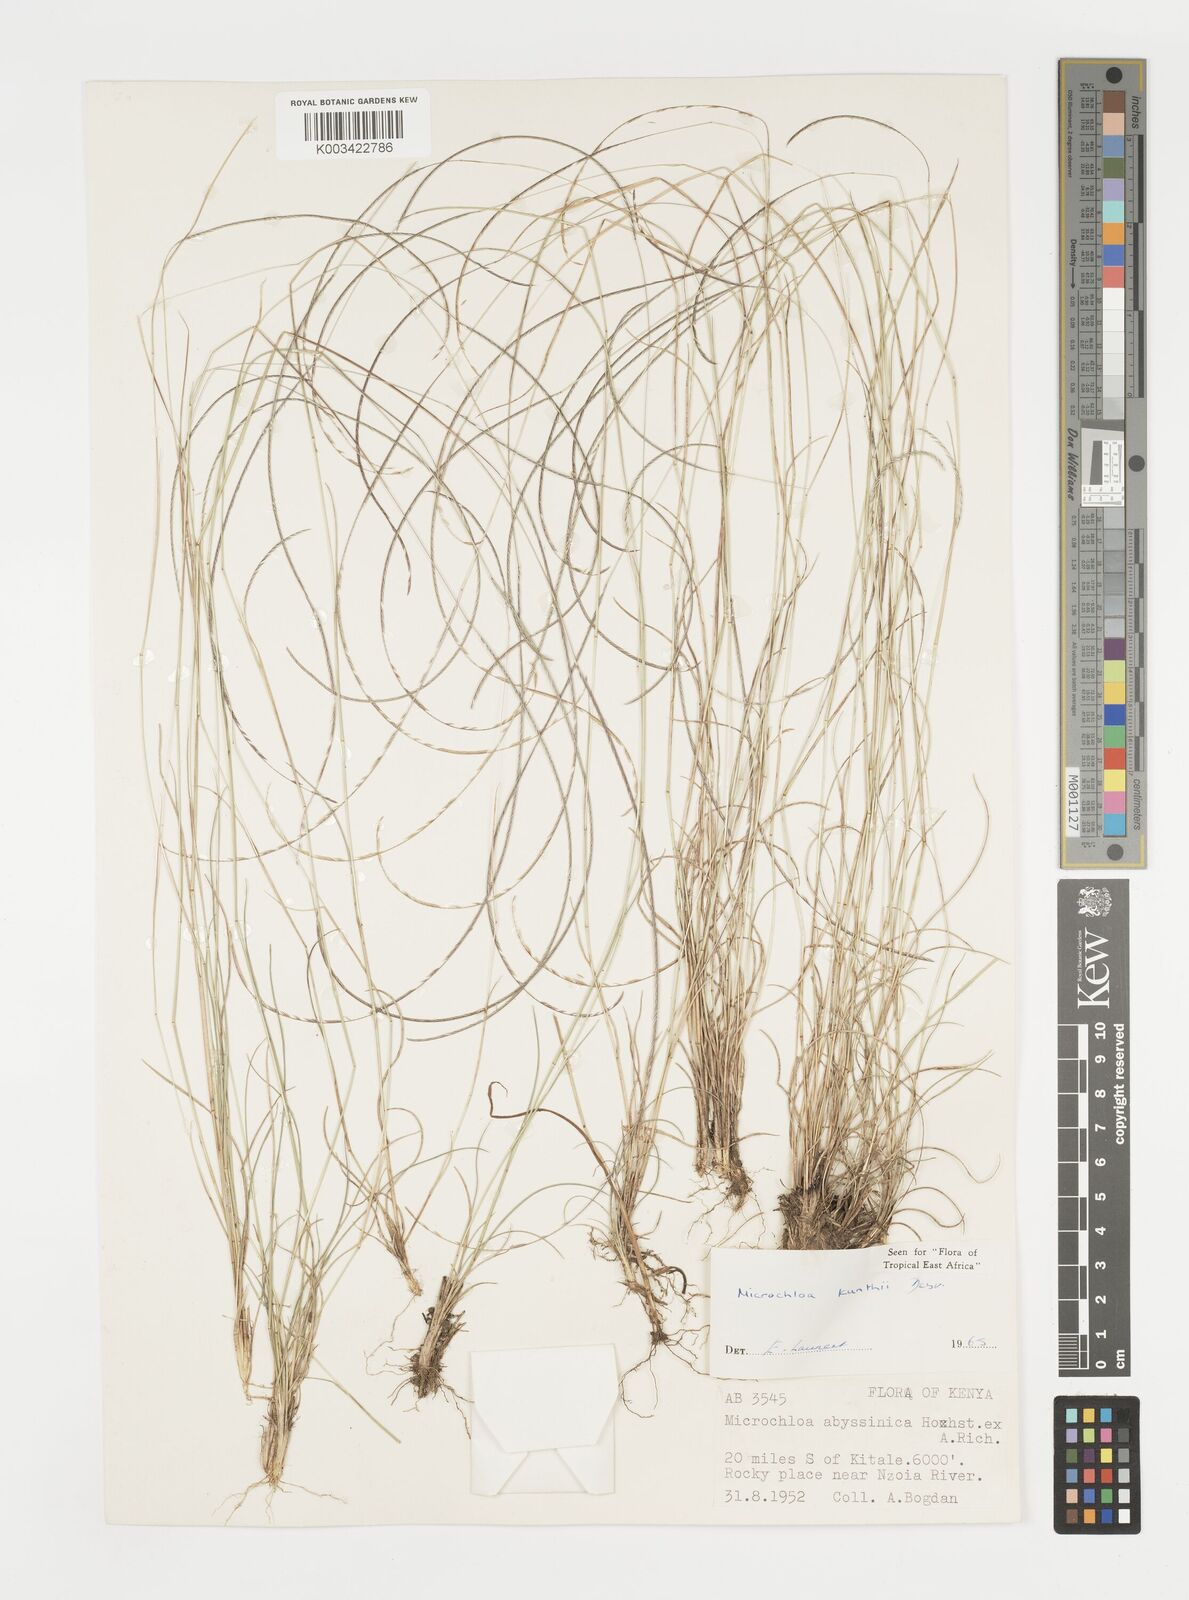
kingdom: Plantae
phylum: Tracheophyta
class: Liliopsida
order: Poales
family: Poaceae
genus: Microchloa
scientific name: Microchloa kunthii
